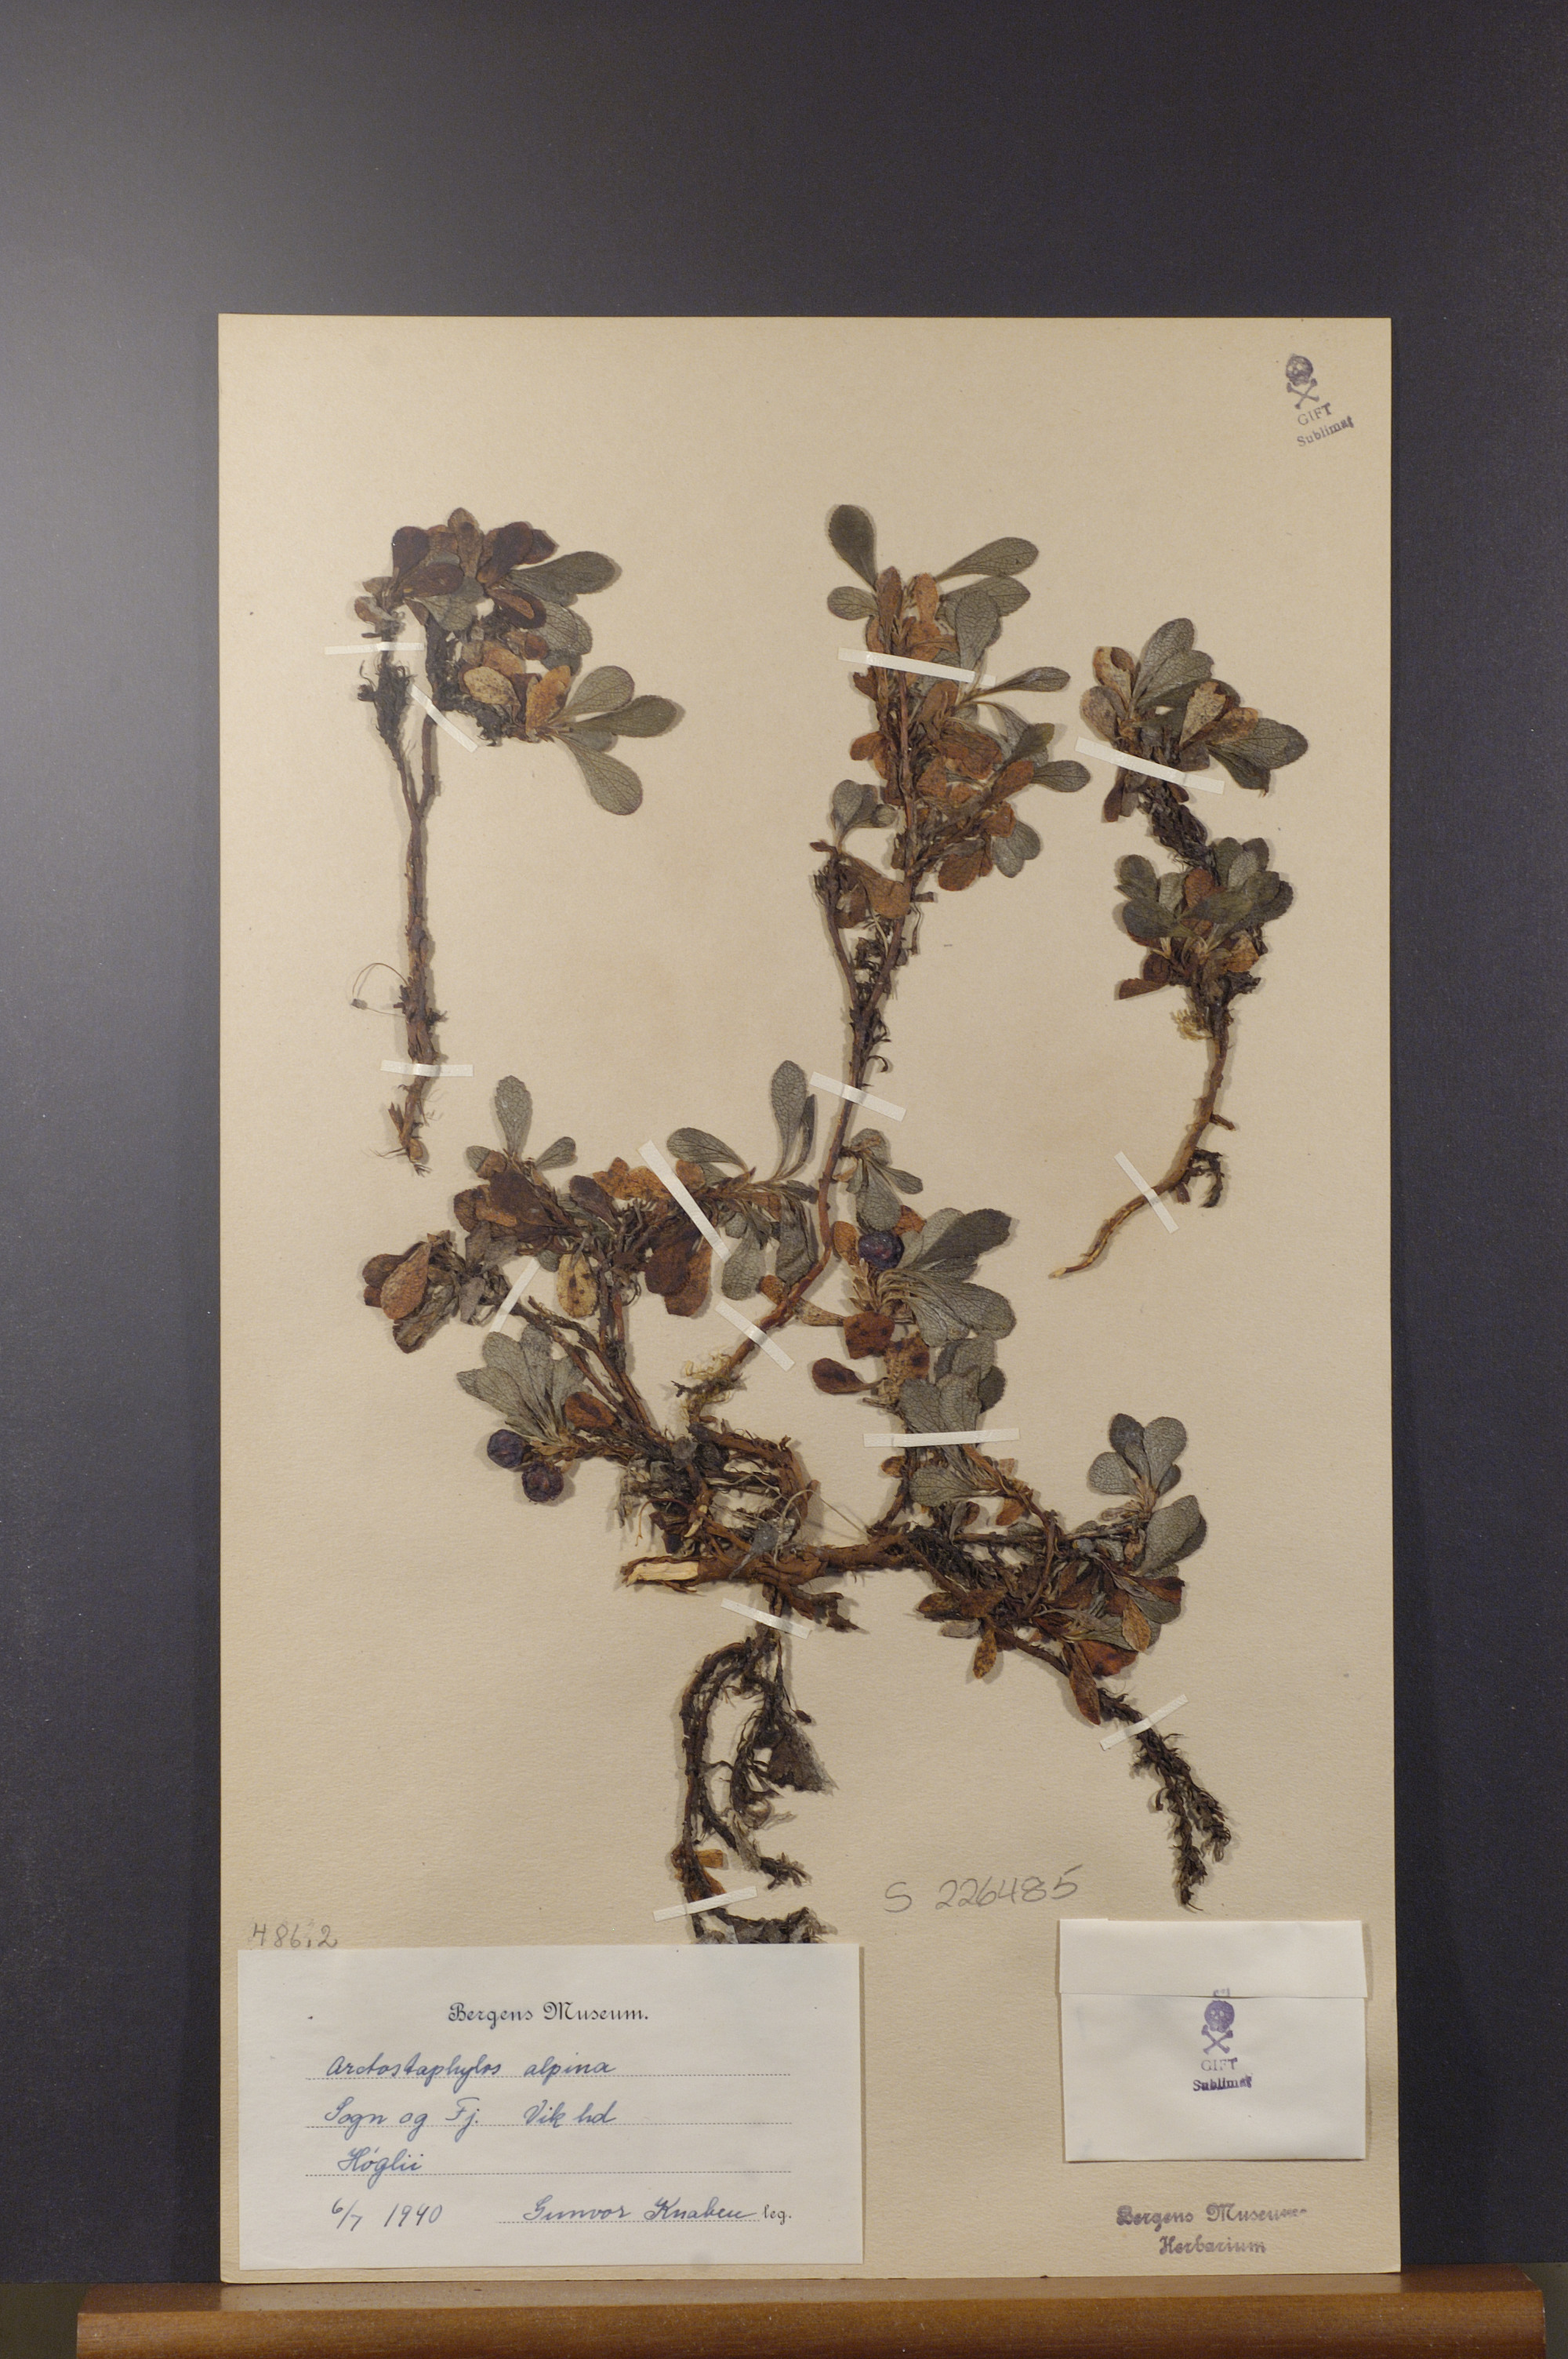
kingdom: Plantae
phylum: Tracheophyta
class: Magnoliopsida
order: Ericales
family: Ericaceae
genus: Arctostaphylos
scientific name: Arctostaphylos alpinus
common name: Alpine bearberry
